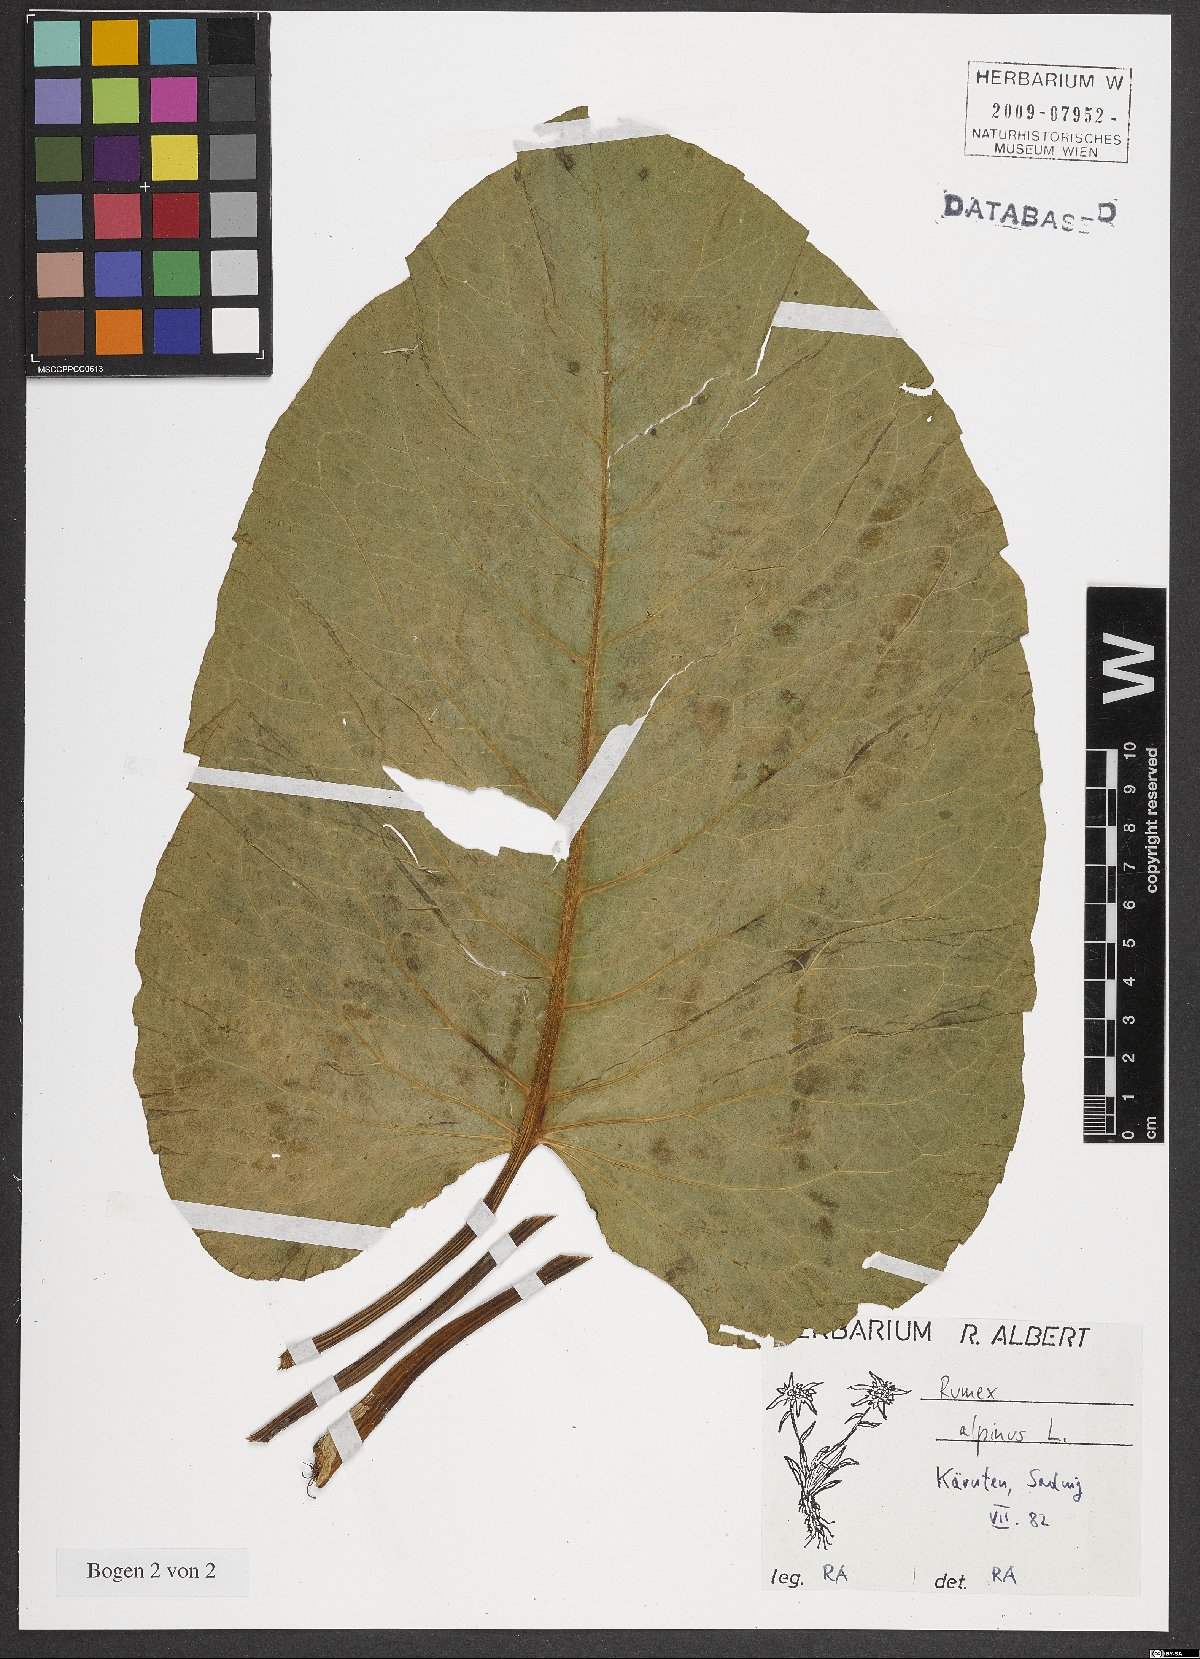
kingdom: Plantae
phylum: Tracheophyta
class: Magnoliopsida
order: Caryophyllales
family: Polygonaceae
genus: Rumex
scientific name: Rumex alpinus
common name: Alpine dock
